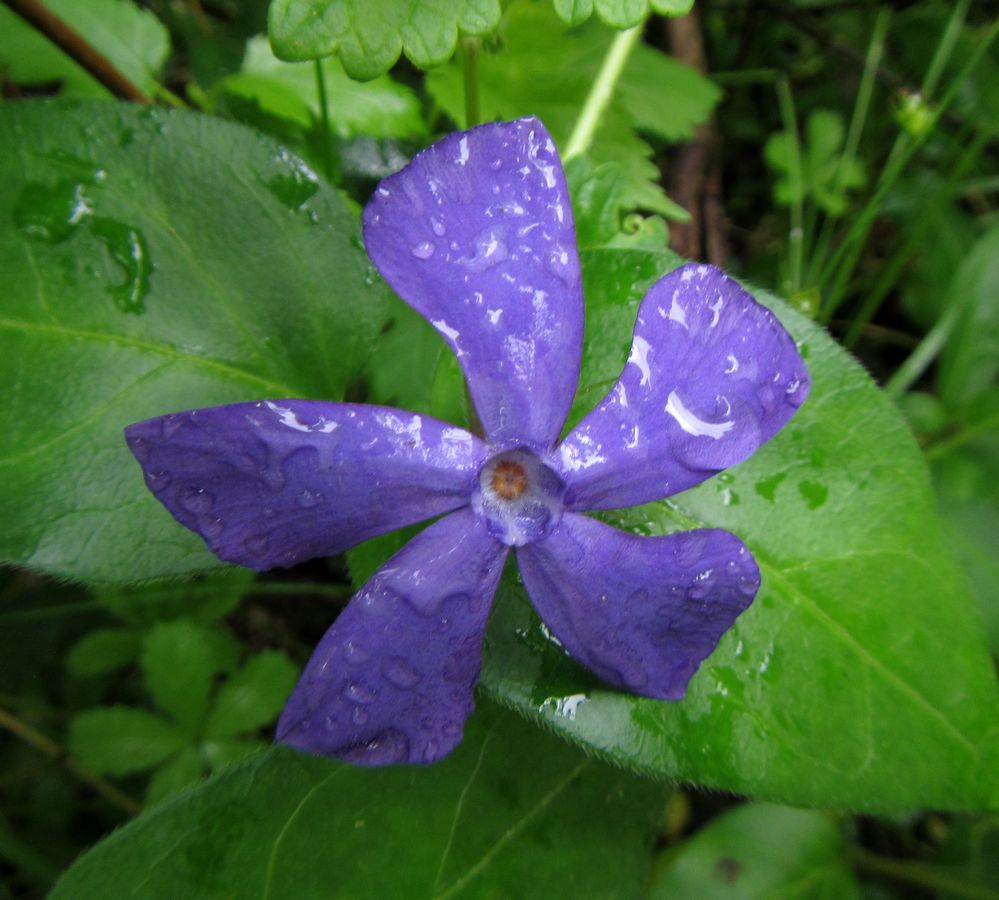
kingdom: Plantae
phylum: Tracheophyta
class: Magnoliopsida
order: Gentianales
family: Apocynaceae
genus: Vinca
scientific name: Vinca minor
